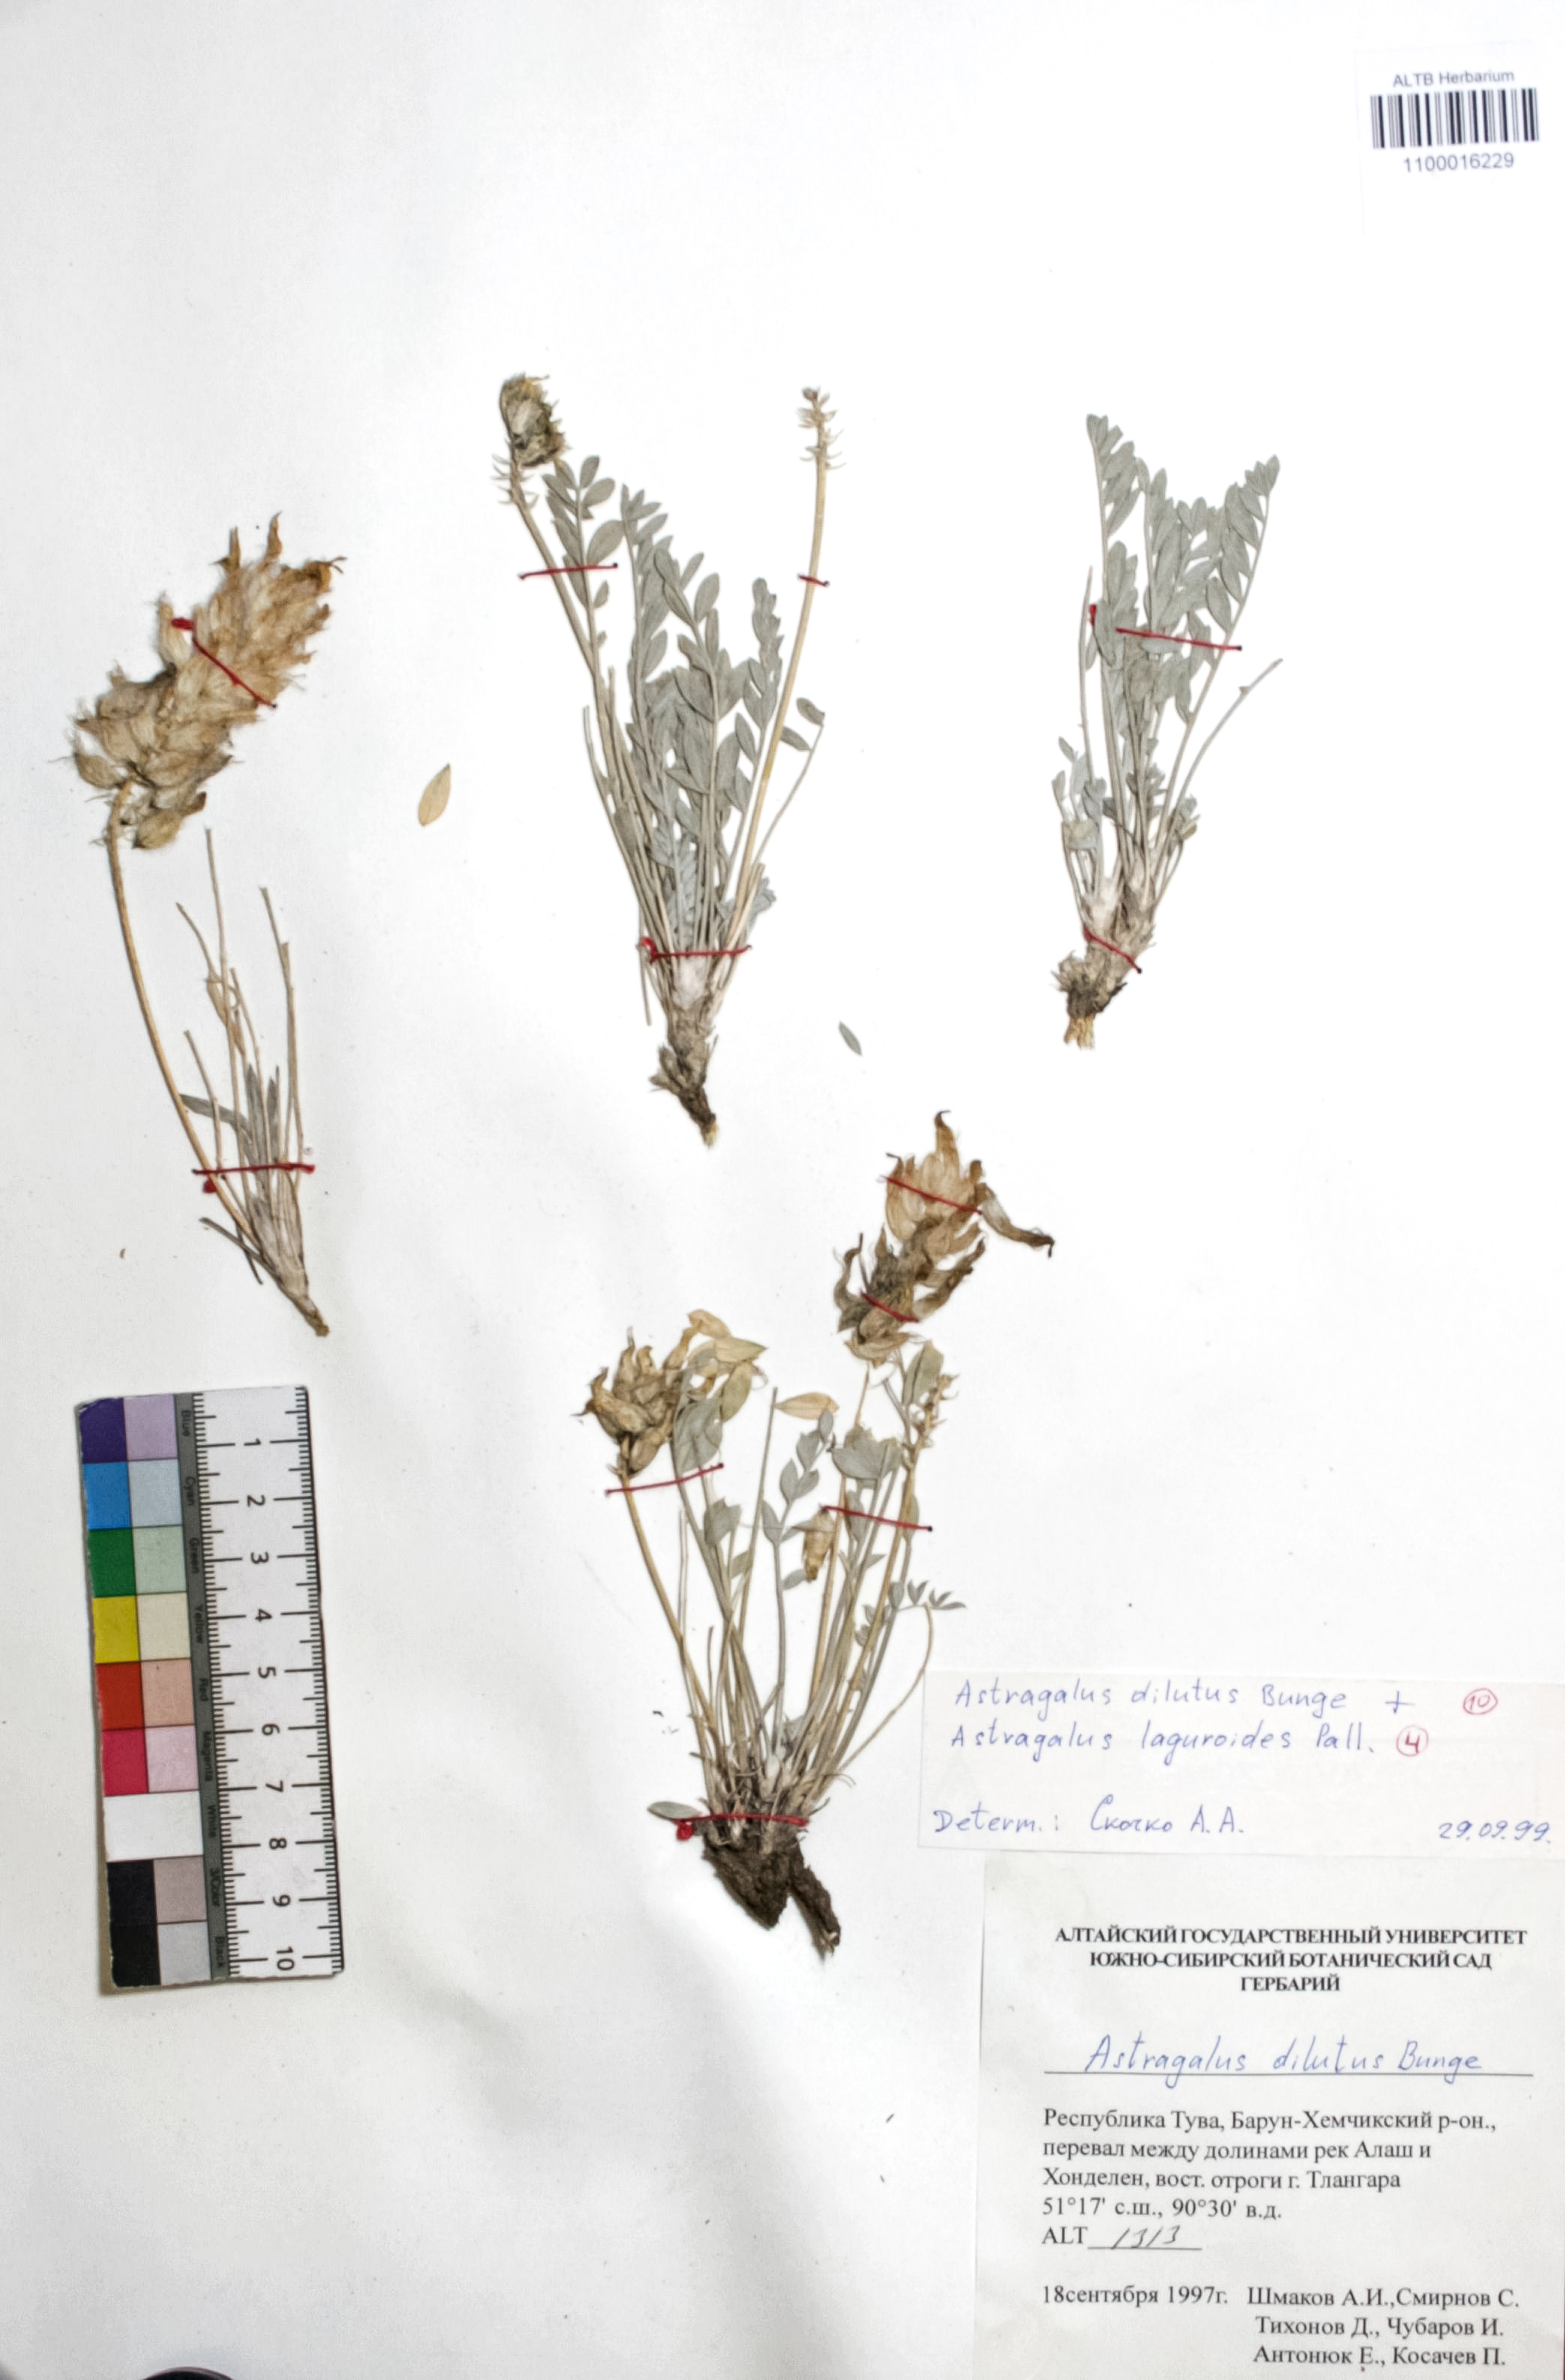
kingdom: Plantae
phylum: Tracheophyta
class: Magnoliopsida
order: Fabales
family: Fabaceae
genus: Astragalus
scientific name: Astragalus dilutus
